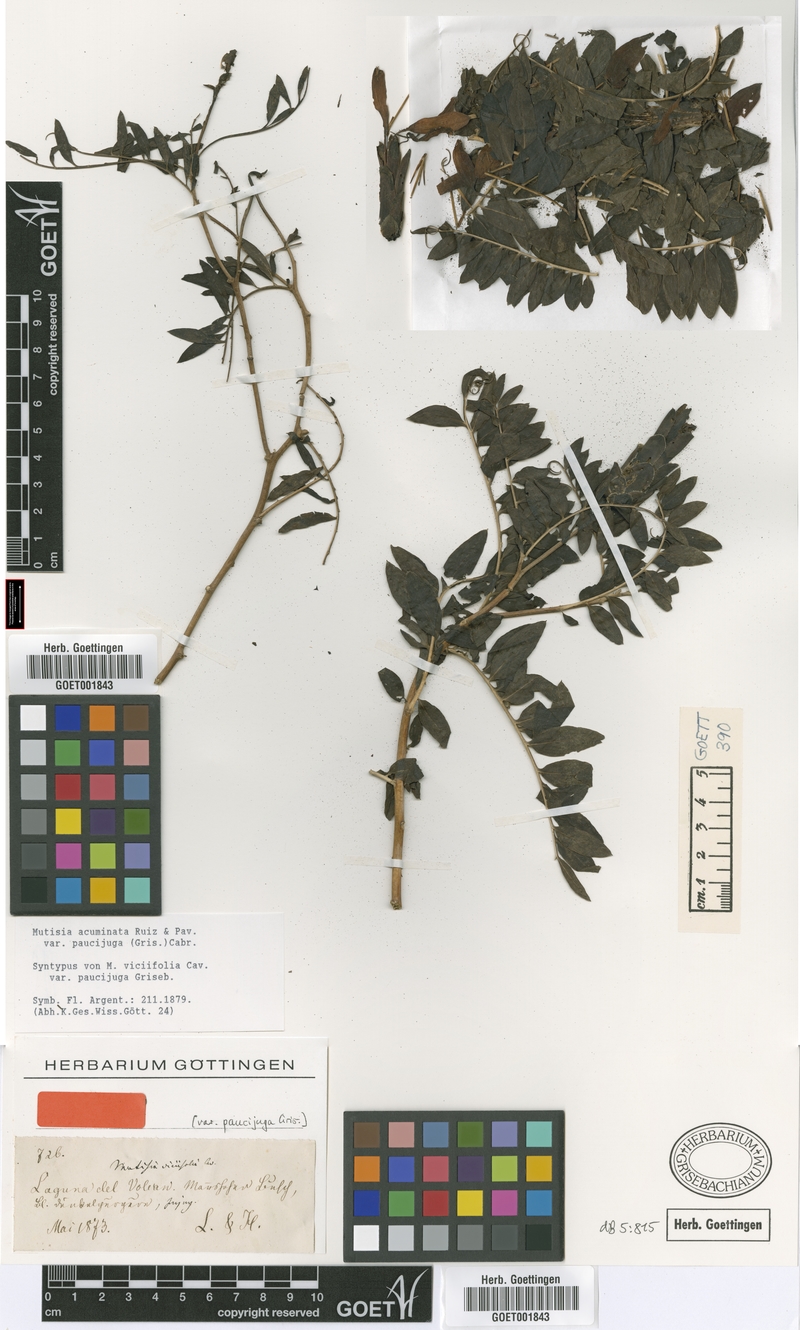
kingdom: Plantae
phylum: Tracheophyta
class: Magnoliopsida
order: Asterales
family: Asteraceae
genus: Mutisia
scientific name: Mutisia acuminata
